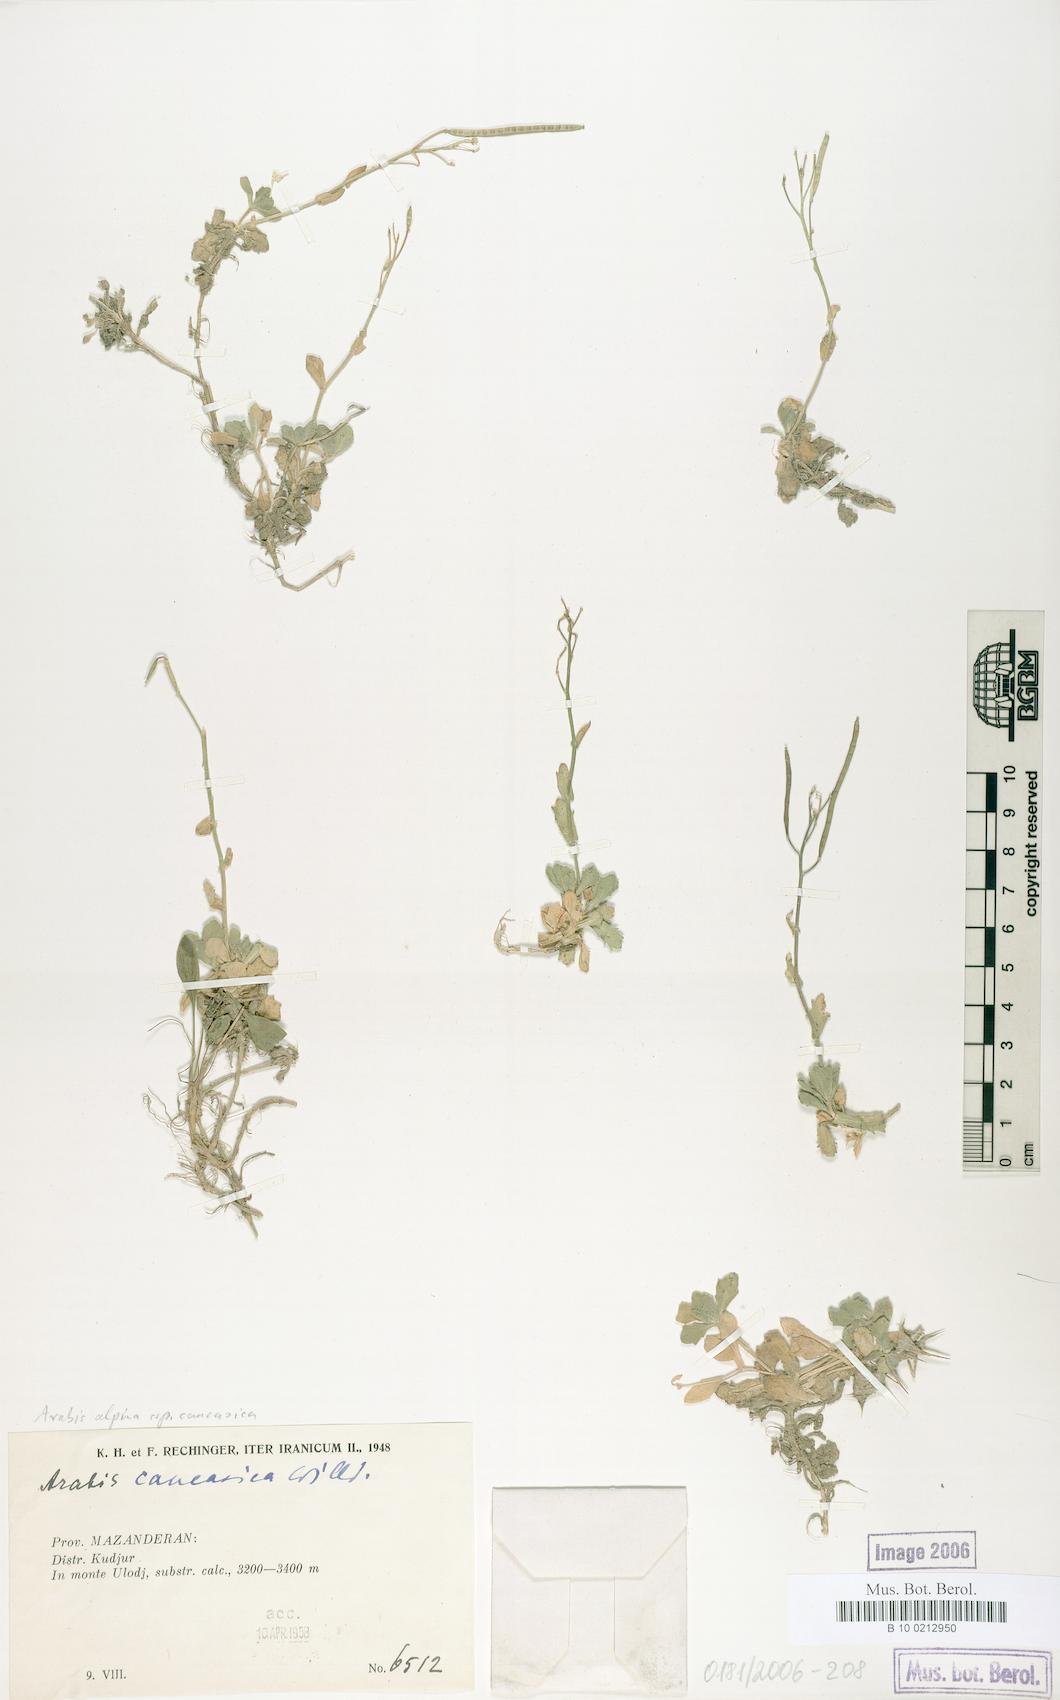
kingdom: Plantae
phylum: Tracheophyta
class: Magnoliopsida
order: Brassicales
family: Brassicaceae
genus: Arabis
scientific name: Arabis caucasica
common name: Gray rockcress
